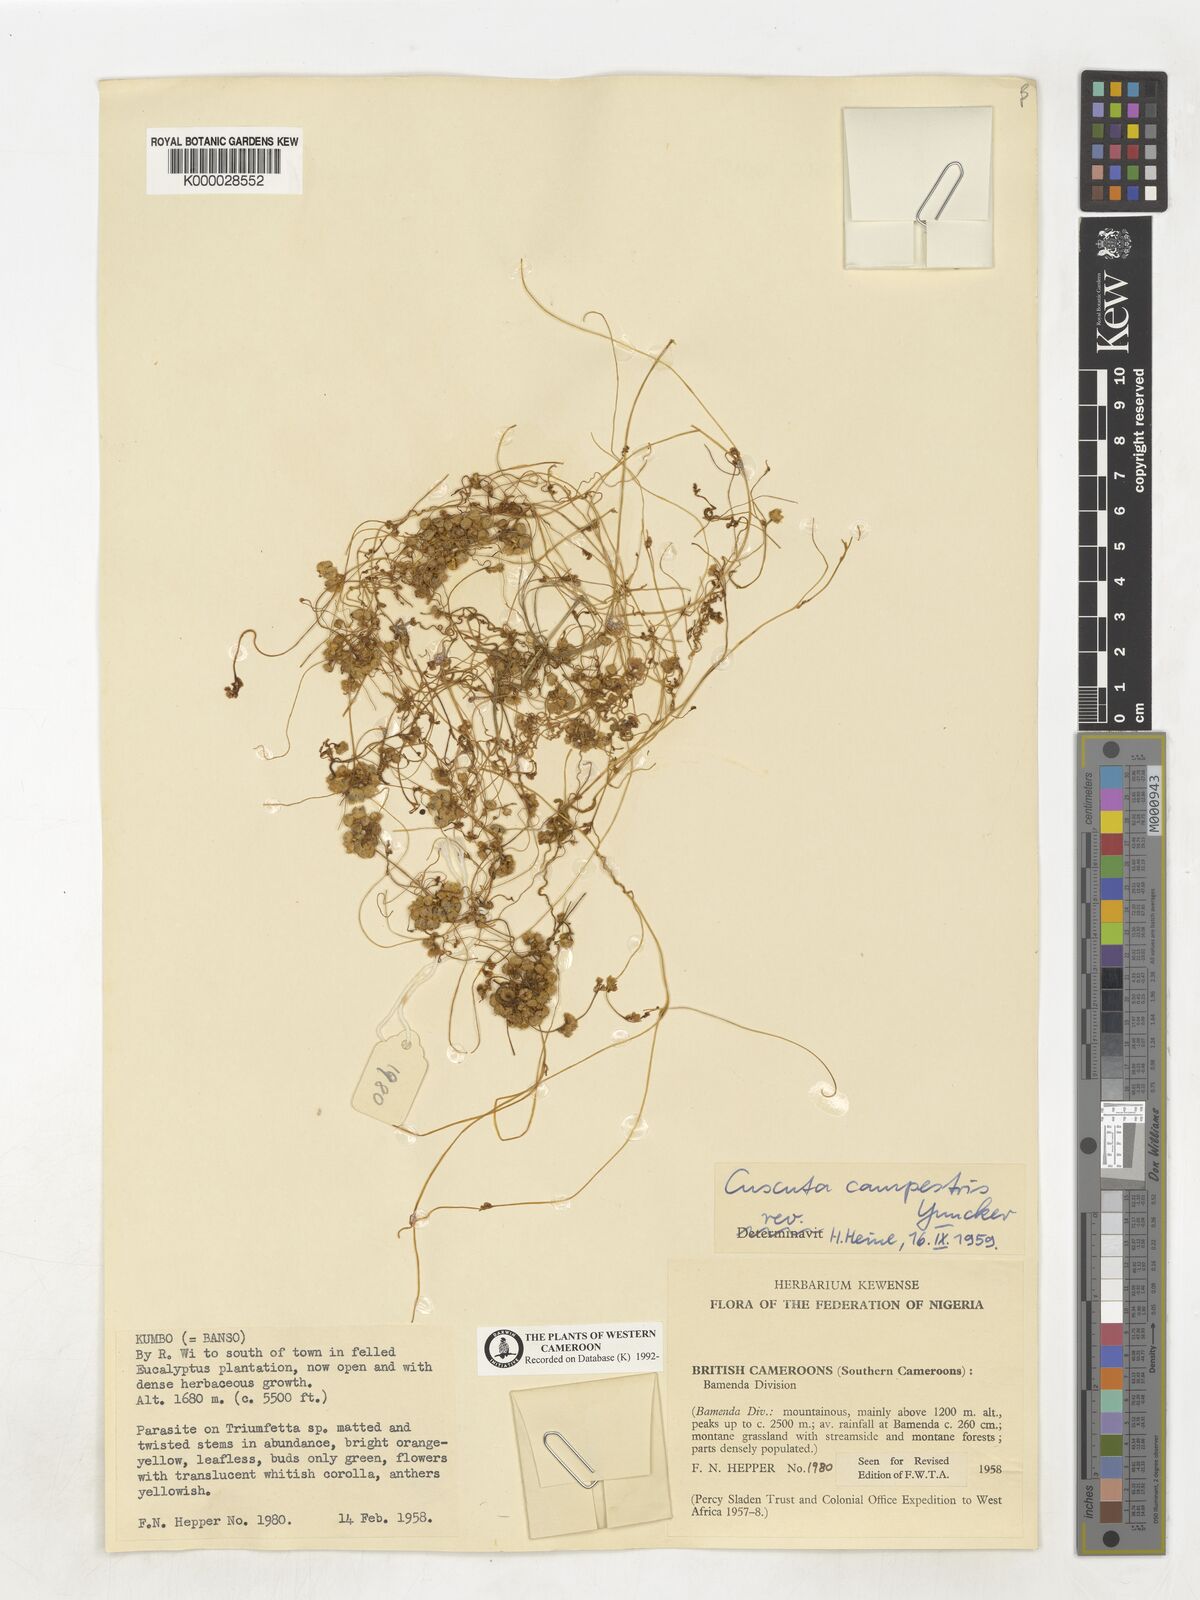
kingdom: Plantae
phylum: Tracheophyta
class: Magnoliopsida
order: Solanales
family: Convolvulaceae
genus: Cuscuta
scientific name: Cuscuta campestris
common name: Yellow dodder
